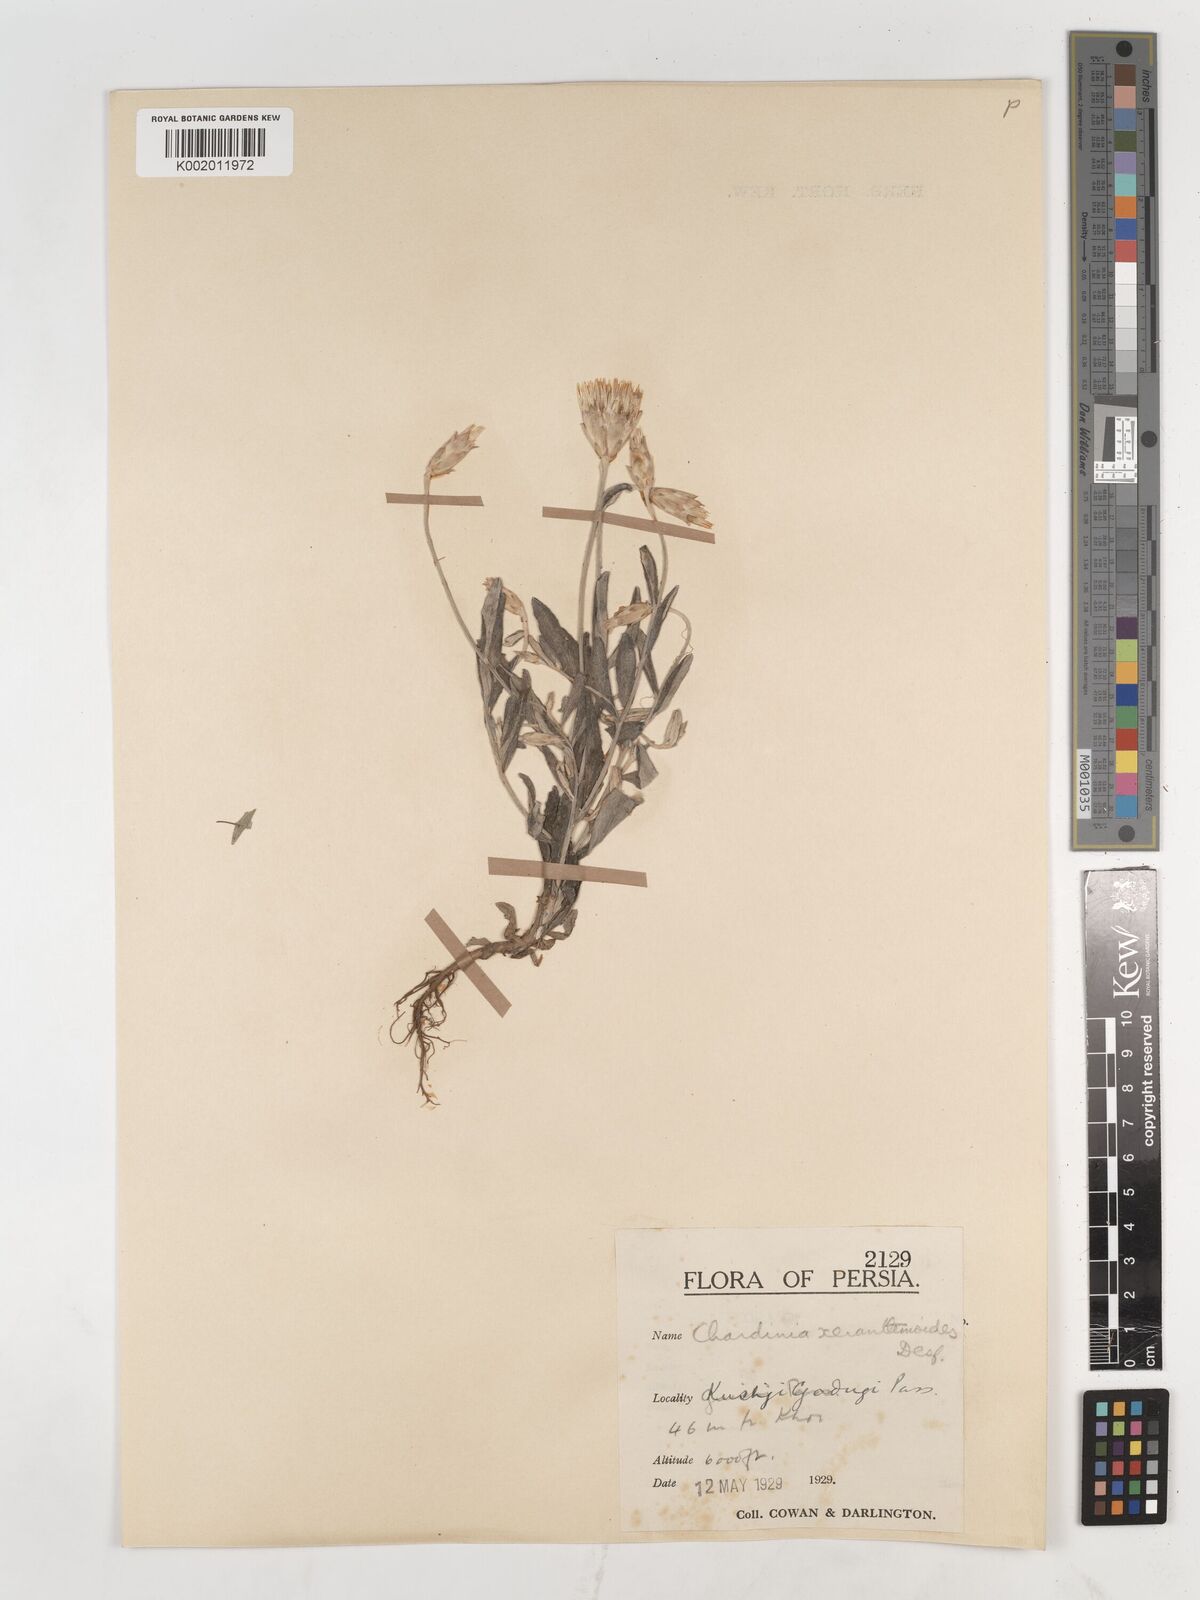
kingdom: Plantae
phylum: Tracheophyta
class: Magnoliopsida
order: Asterales
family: Asteraceae
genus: Chardinia
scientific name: Chardinia orientalis
